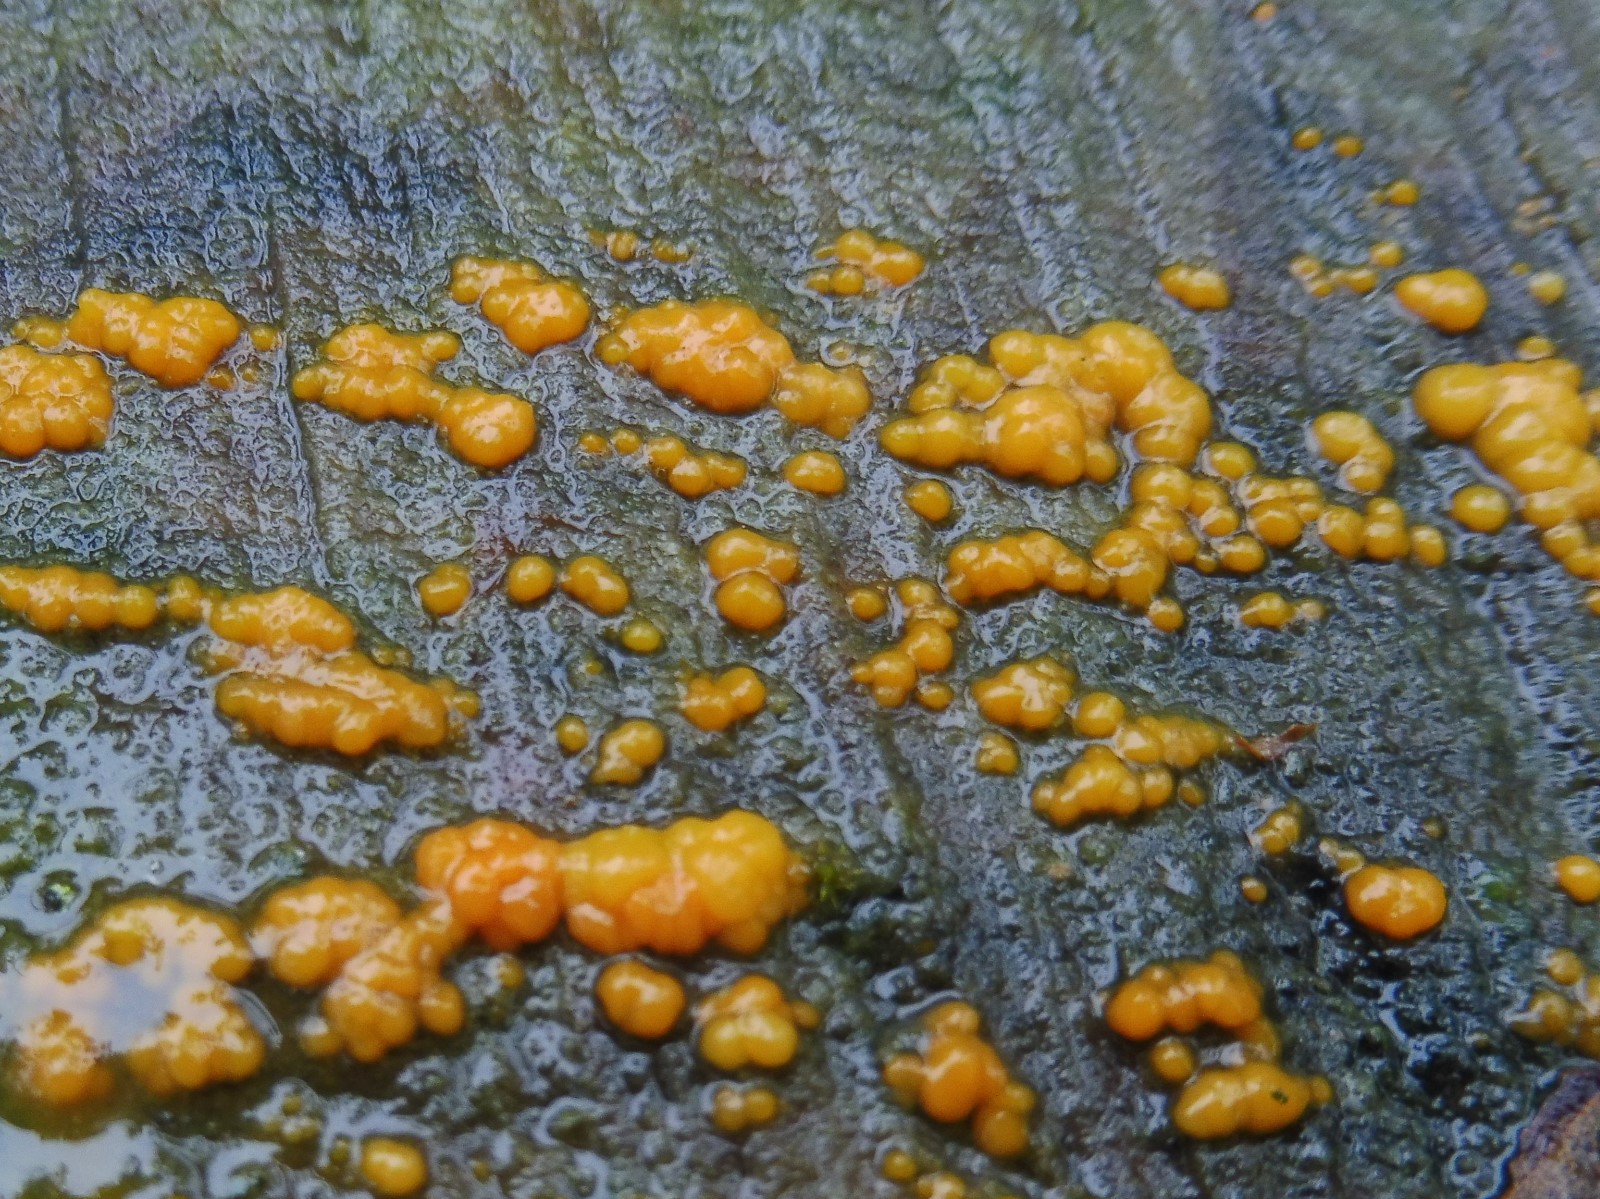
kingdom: Fungi
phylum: Basidiomycota
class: Dacrymycetes
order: Dacrymycetales
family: Dacrymycetaceae
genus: Dacrymyces
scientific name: Dacrymyces stillatus
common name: almindelig tåresvamp
